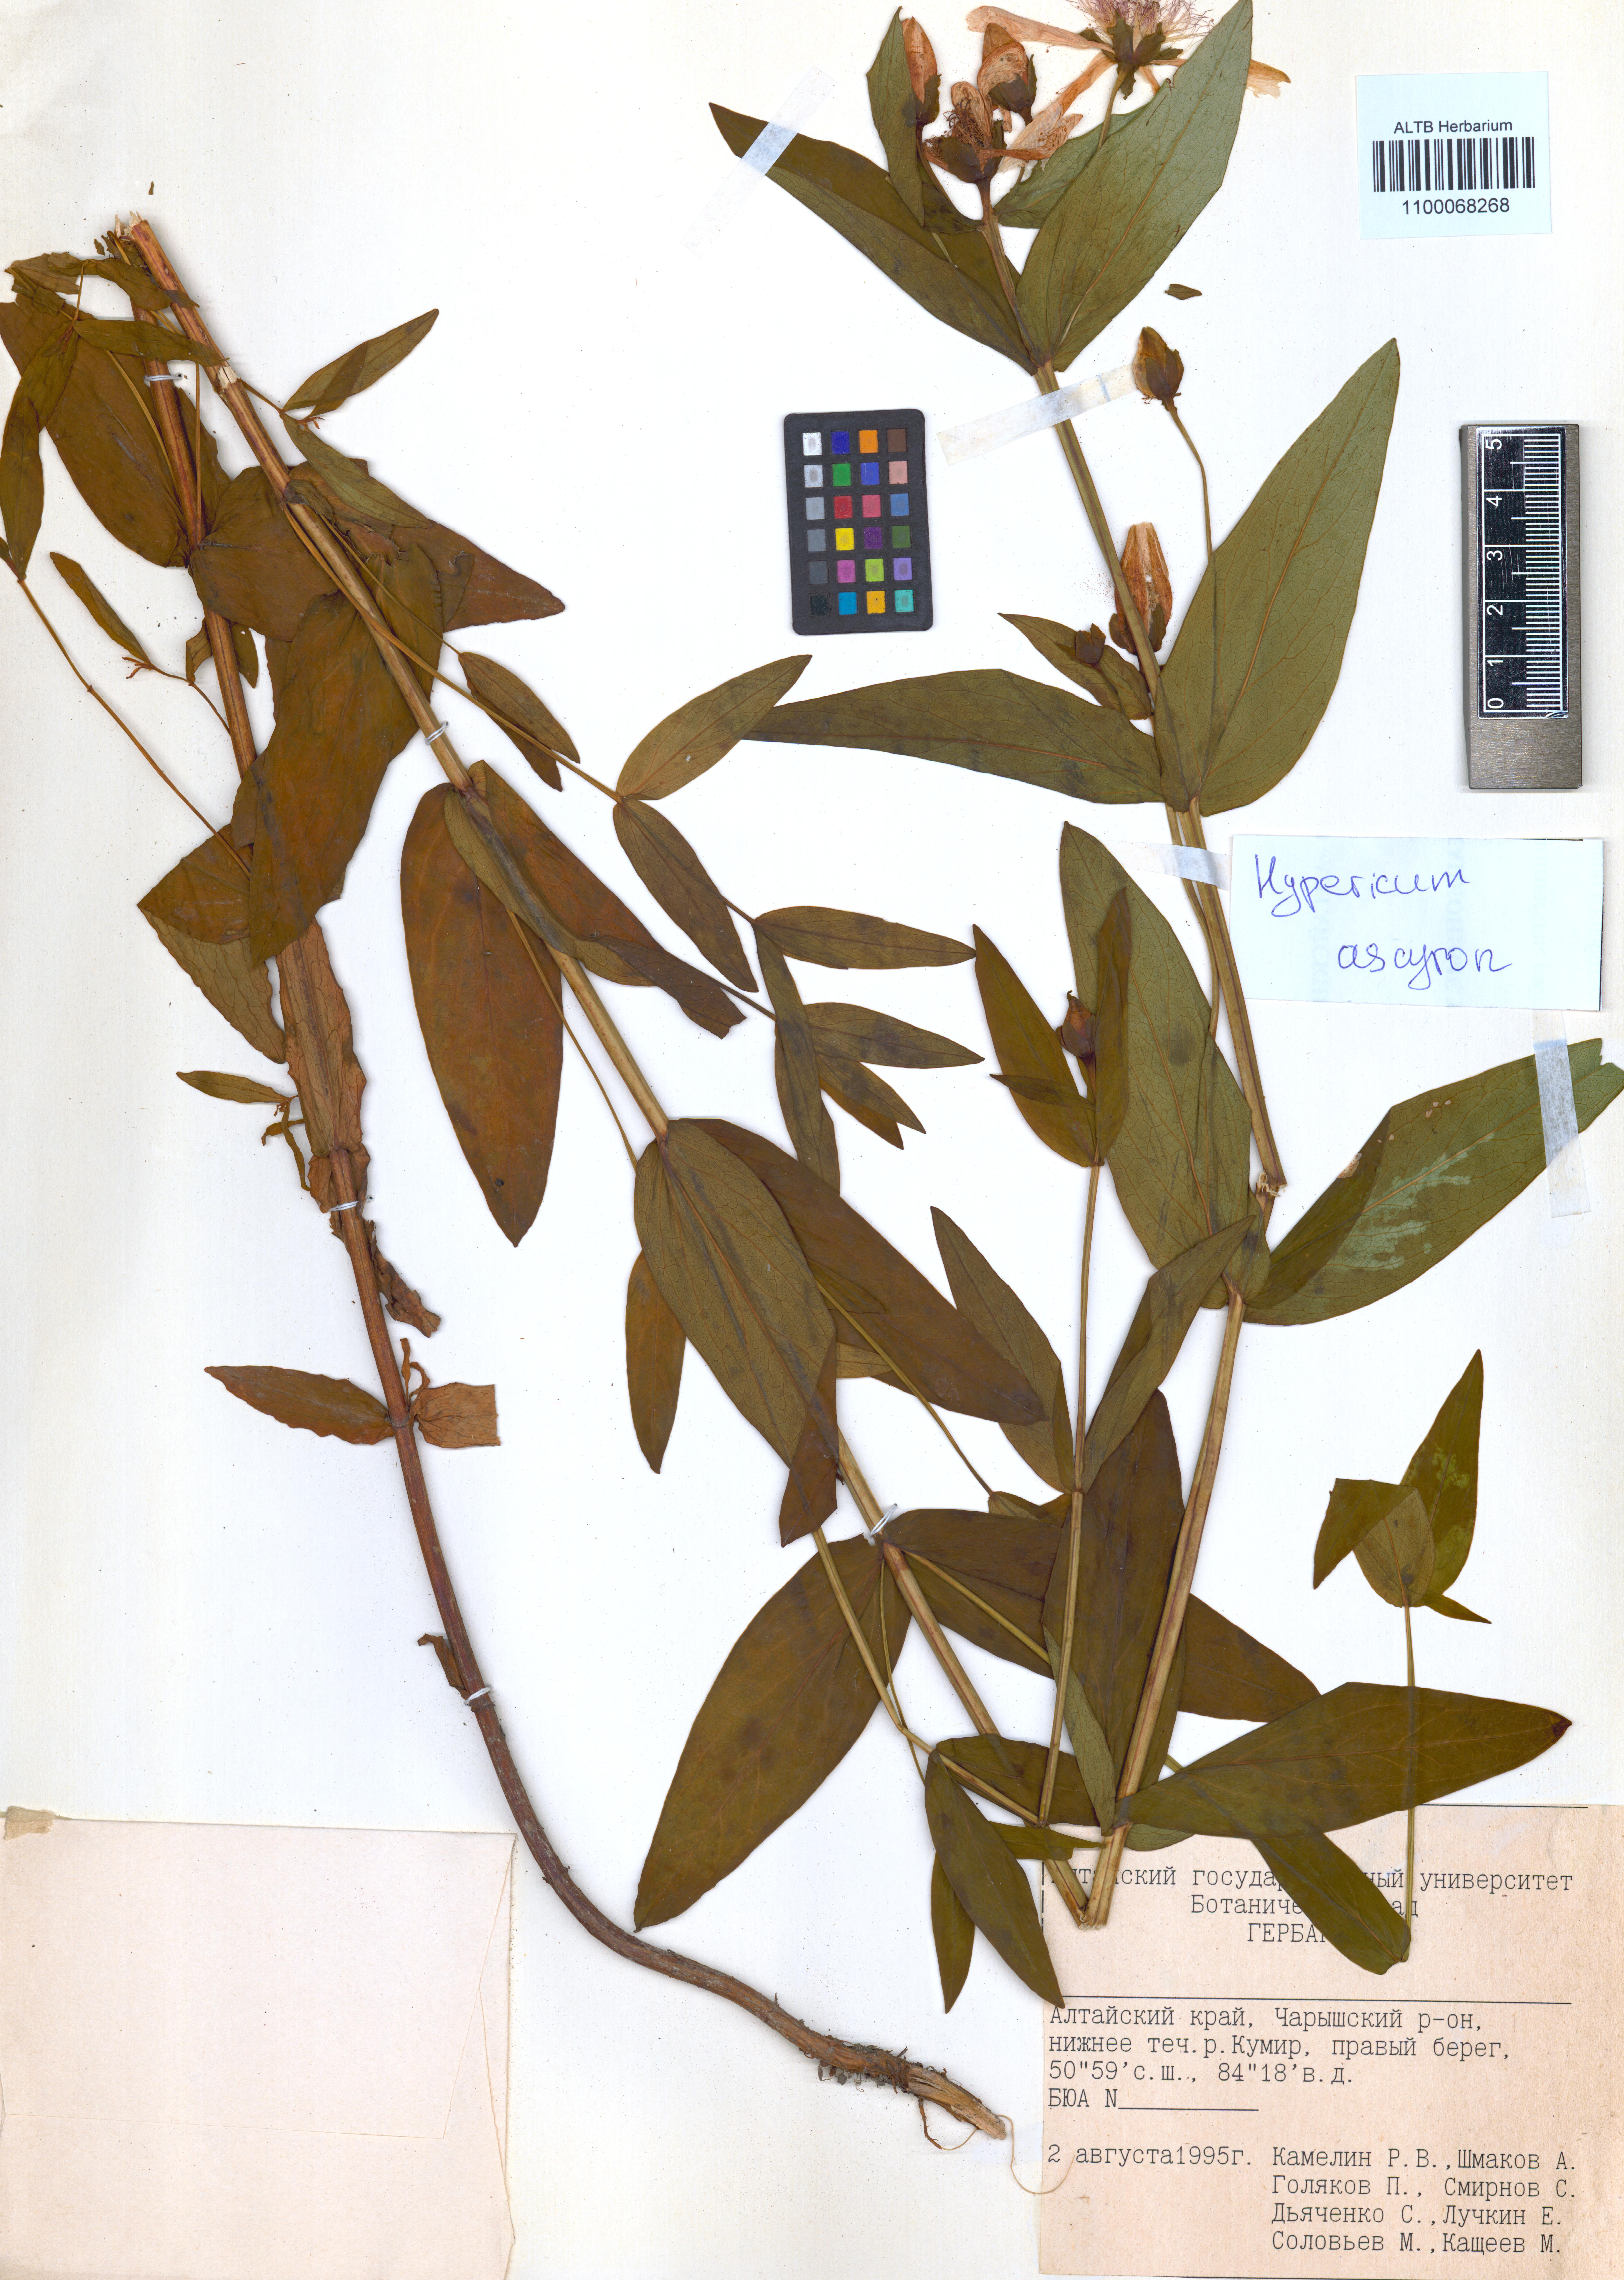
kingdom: Plantae
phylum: Tracheophyta
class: Magnoliopsida
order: Malpighiales
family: Hypericaceae
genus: Hypericum
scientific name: Hypericum ascyron
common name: Giant st. john's-wort
